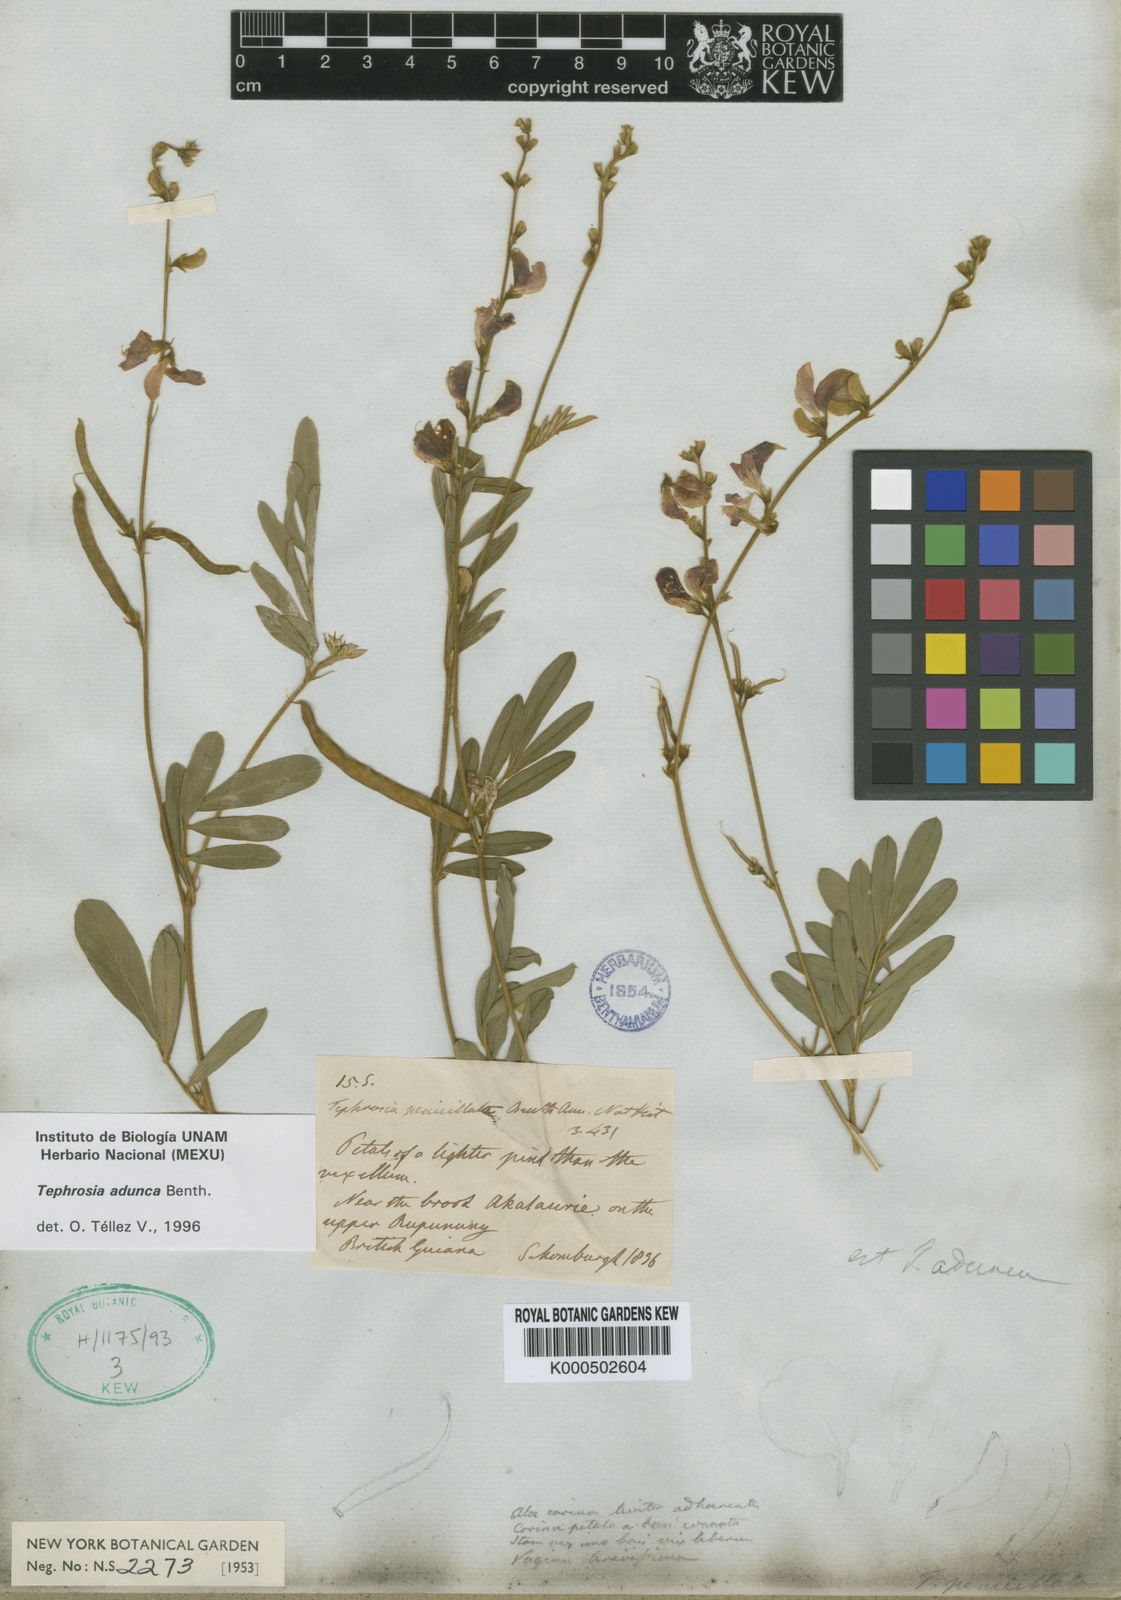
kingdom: Plantae
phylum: Tracheophyta
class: Magnoliopsida
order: Fabales
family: Fabaceae
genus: Tephrosia
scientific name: Tephrosia adunca
